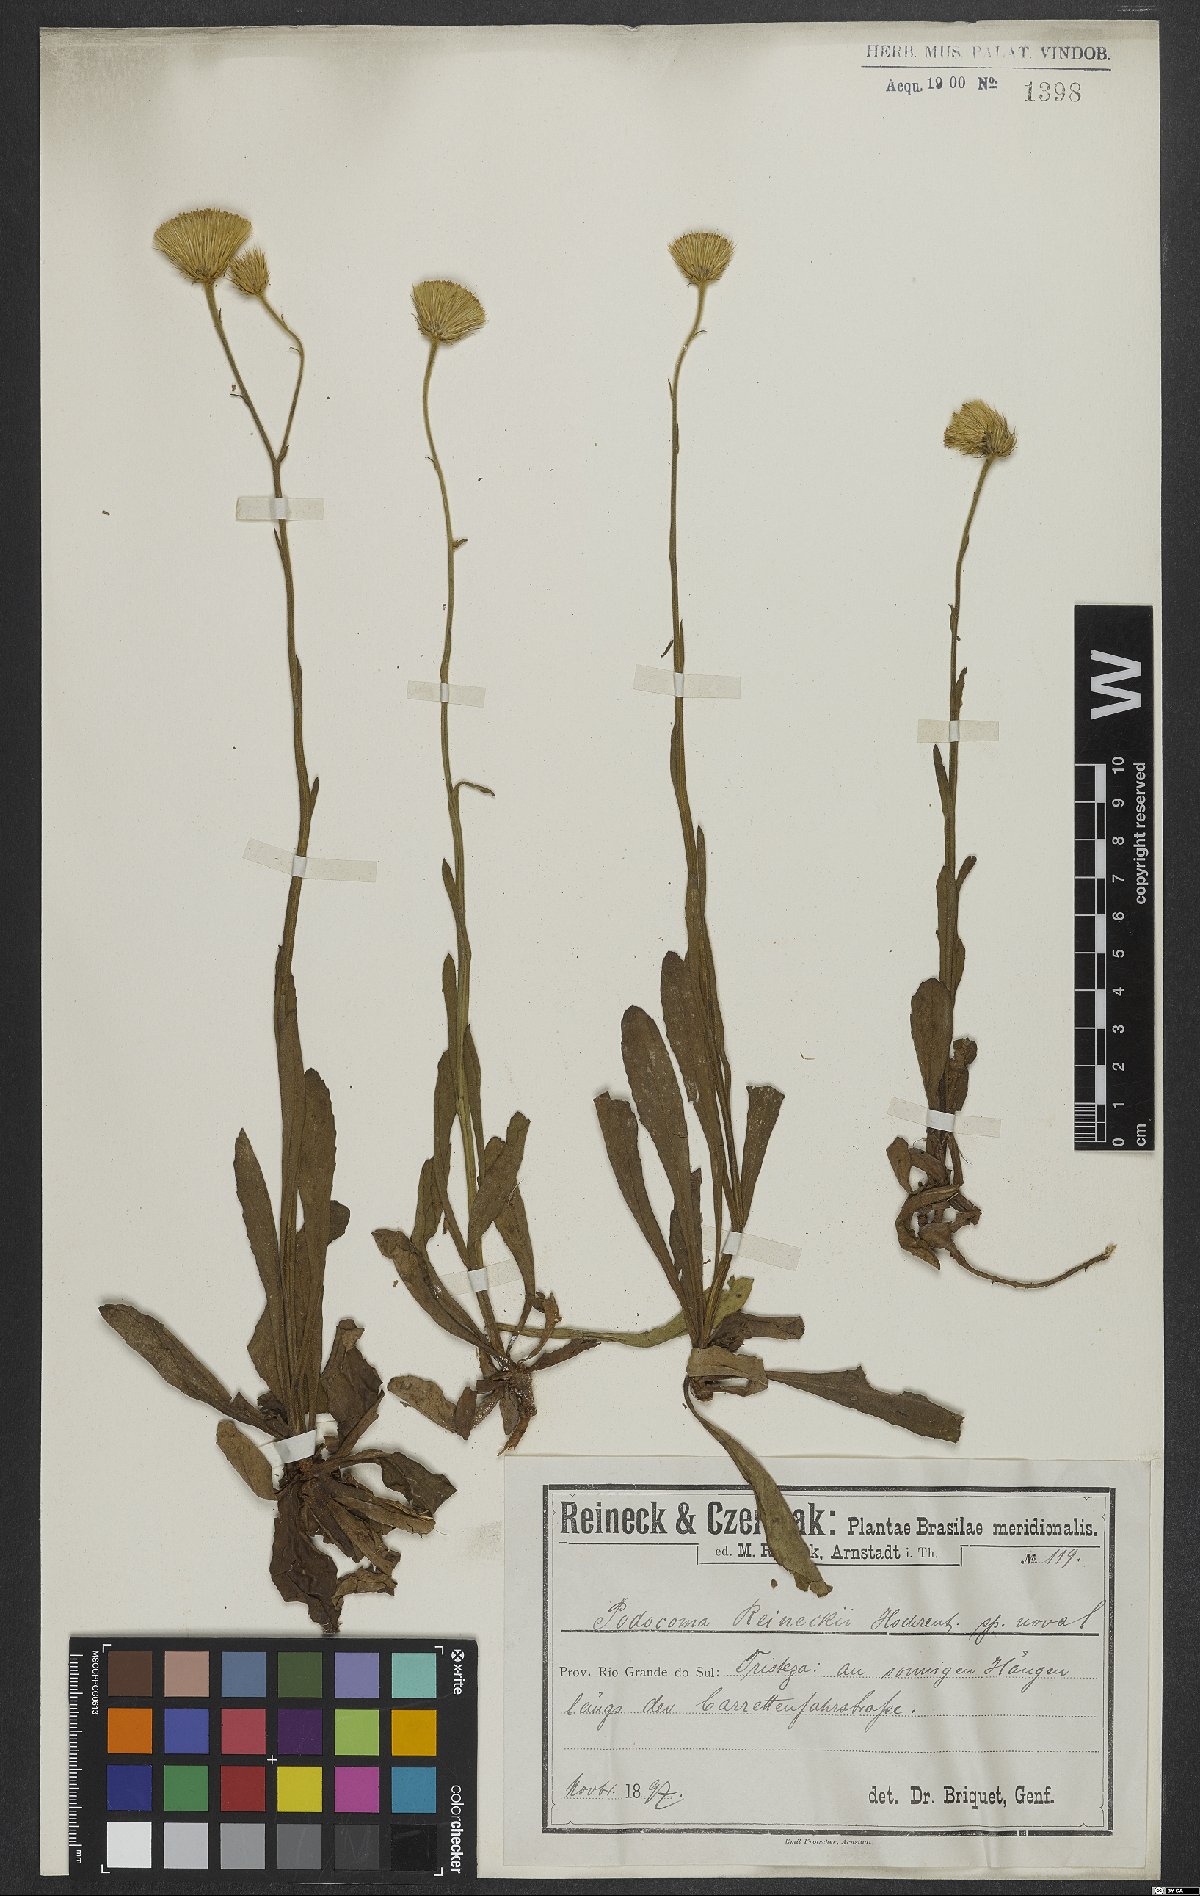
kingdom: Plantae
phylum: Tracheophyta
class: Magnoliopsida
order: Asterales
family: Asteraceae
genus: Podocoma
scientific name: Podocoma reineckii
